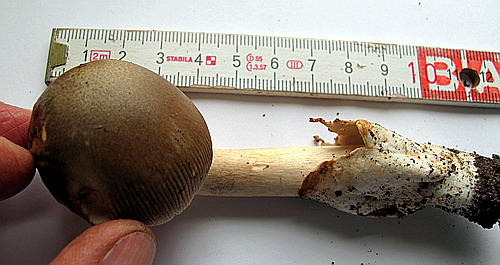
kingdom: Fungi
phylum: Basidiomycota
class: Agaricomycetes
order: Agaricales
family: Amanitaceae
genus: Amanita
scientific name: Amanita fulvoides
